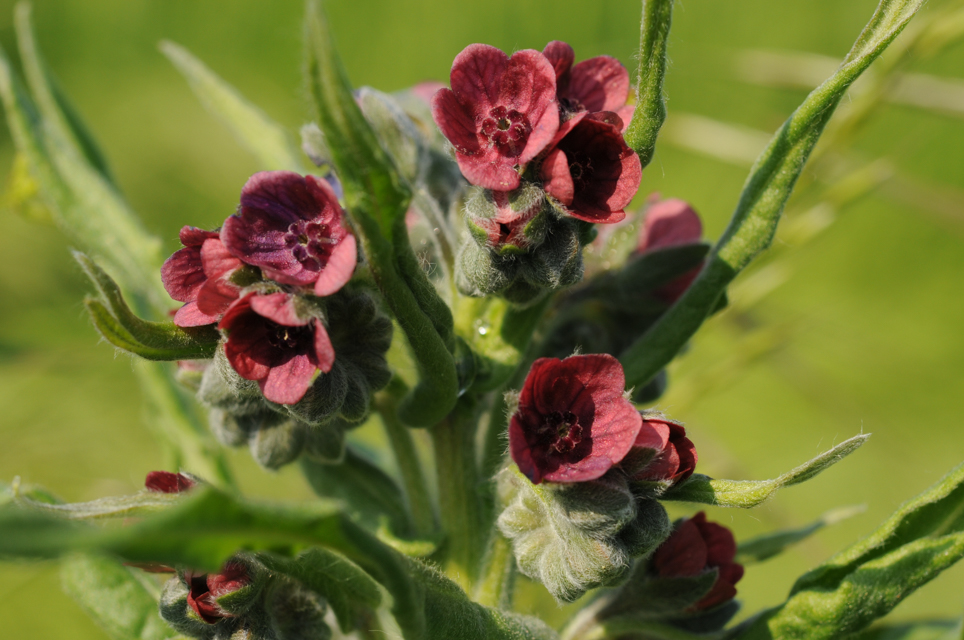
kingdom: Plantae
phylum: Tracheophyta
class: Magnoliopsida
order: Boraginales
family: Boraginaceae
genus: Cynoglossum
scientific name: Cynoglossum officinale
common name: Hound's-tongue
